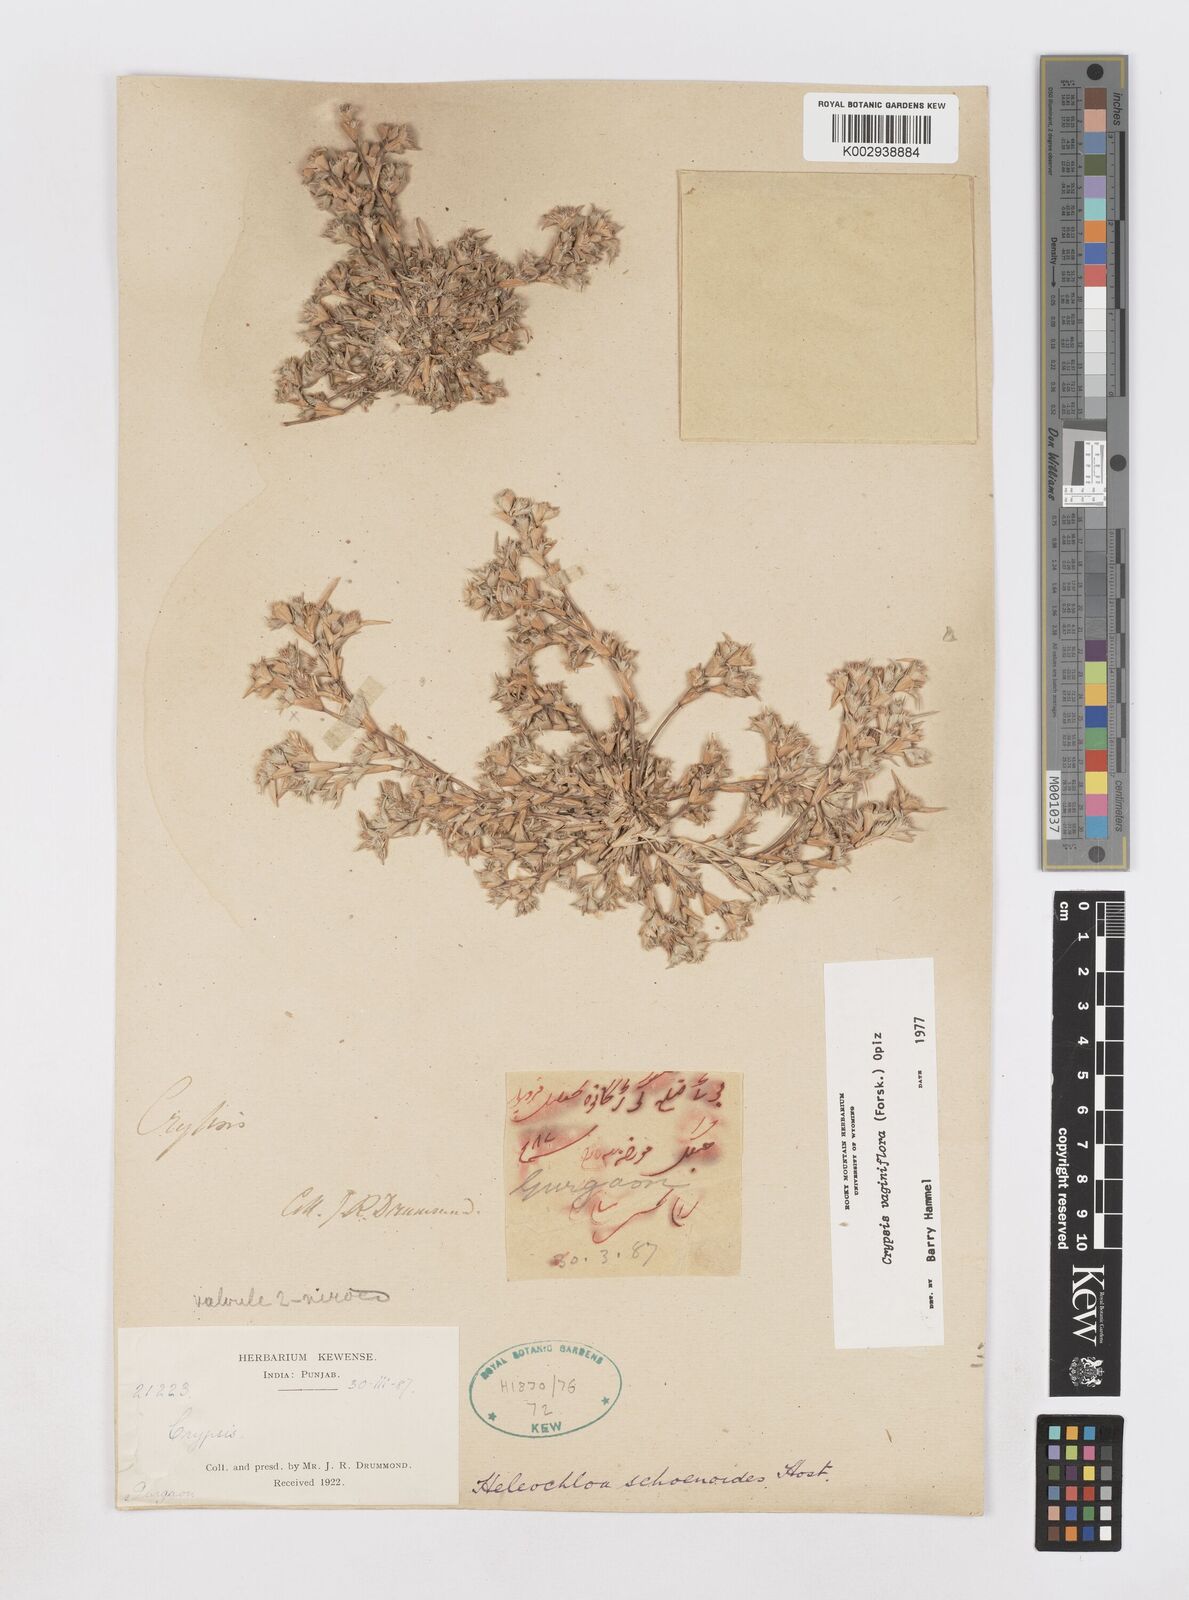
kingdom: Plantae
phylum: Tracheophyta
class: Liliopsida
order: Poales
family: Poaceae
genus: Sporobolus
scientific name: Sporobolus niliacus
